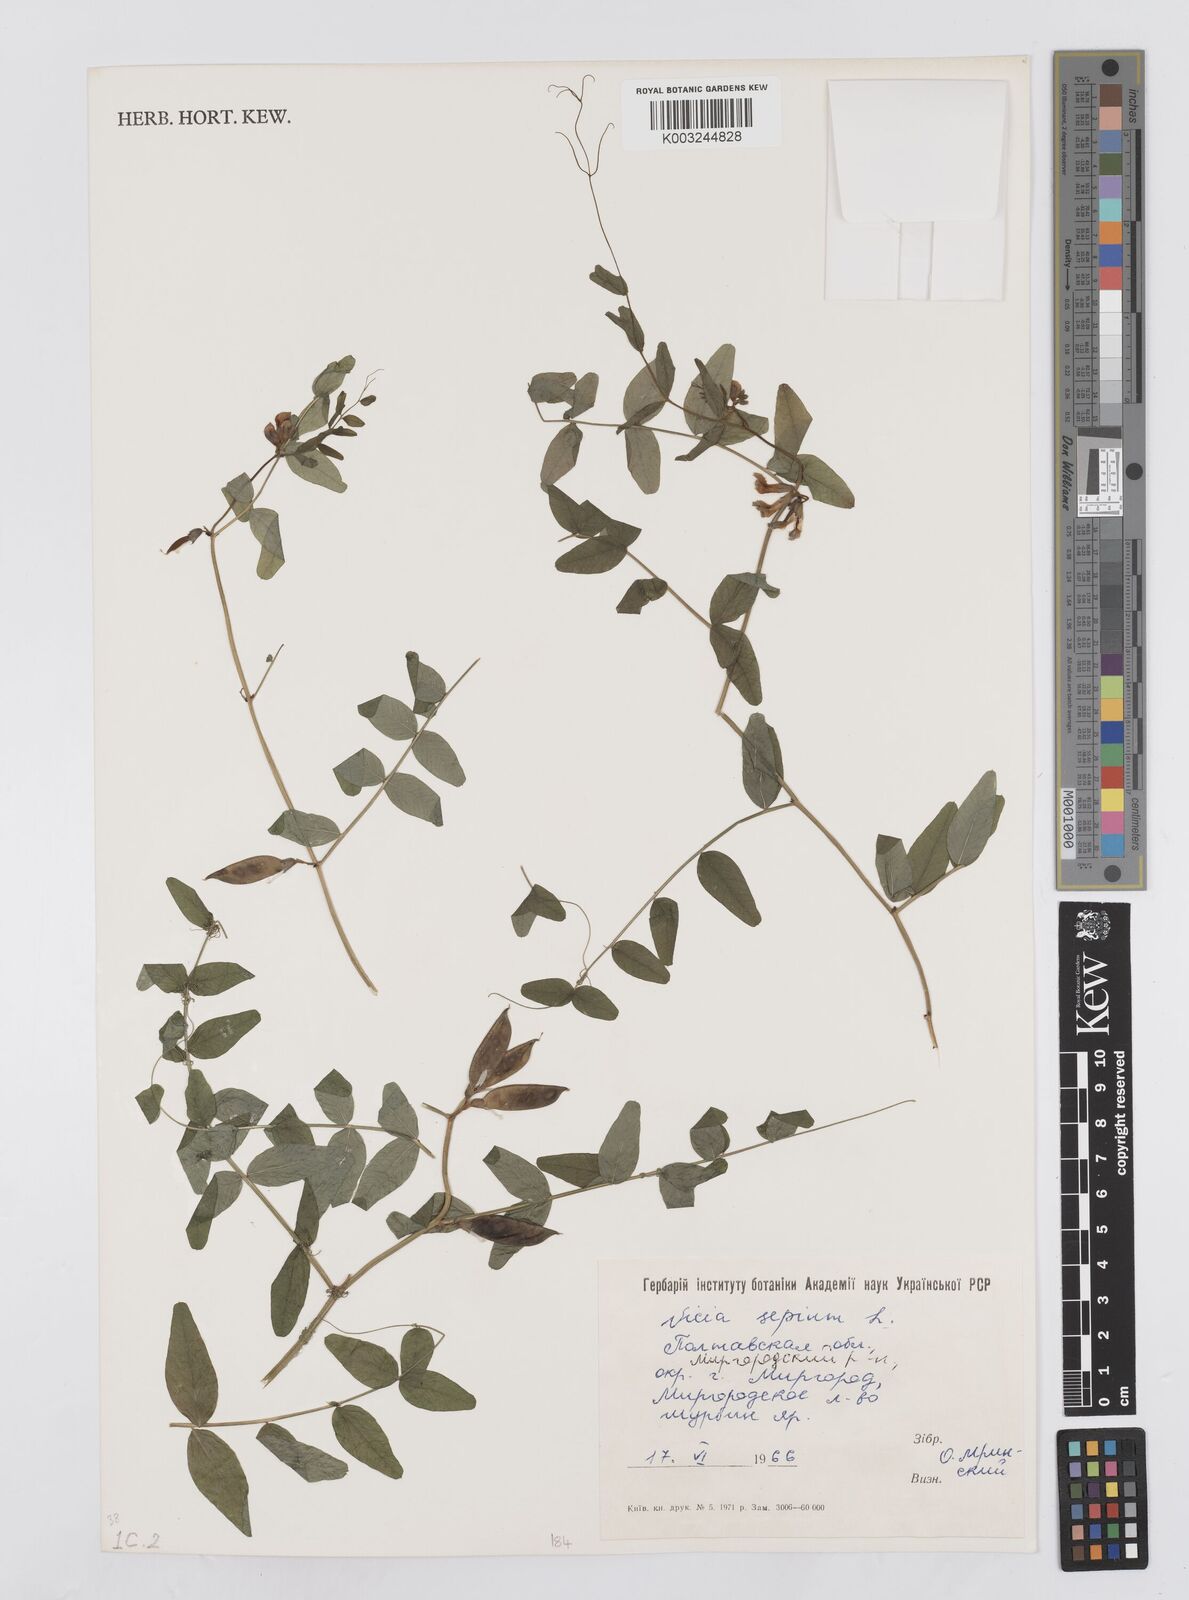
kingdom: Plantae
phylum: Tracheophyta
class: Magnoliopsida
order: Fabales
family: Fabaceae
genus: Vicia
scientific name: Vicia sepium
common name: Bush vetch
